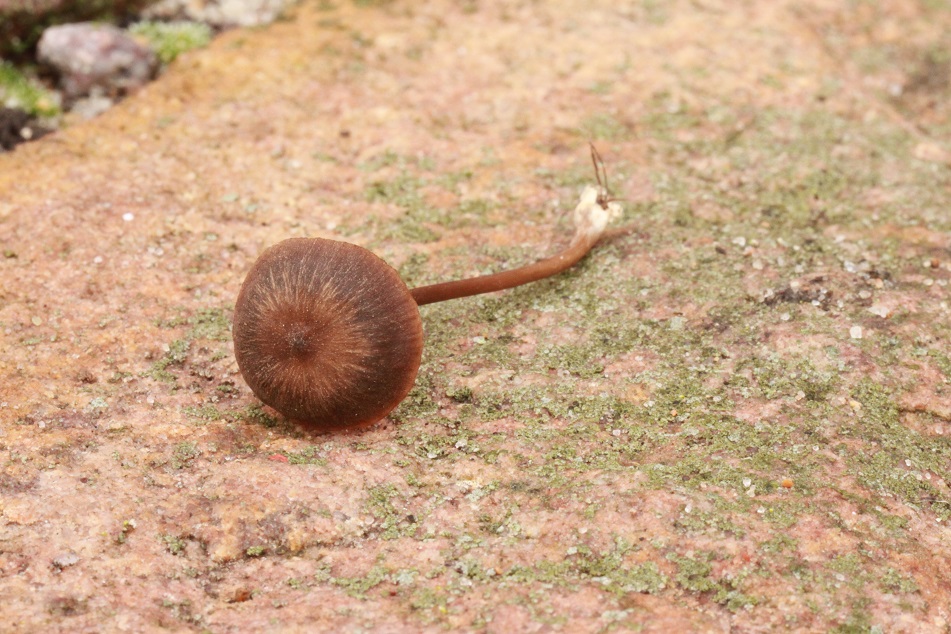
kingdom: Fungi
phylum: Basidiomycota
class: Agaricomycetes
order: Agaricales
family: Entolomataceae
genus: Entoloma
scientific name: Entoloma clandestinum
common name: tykbladet rødblad
